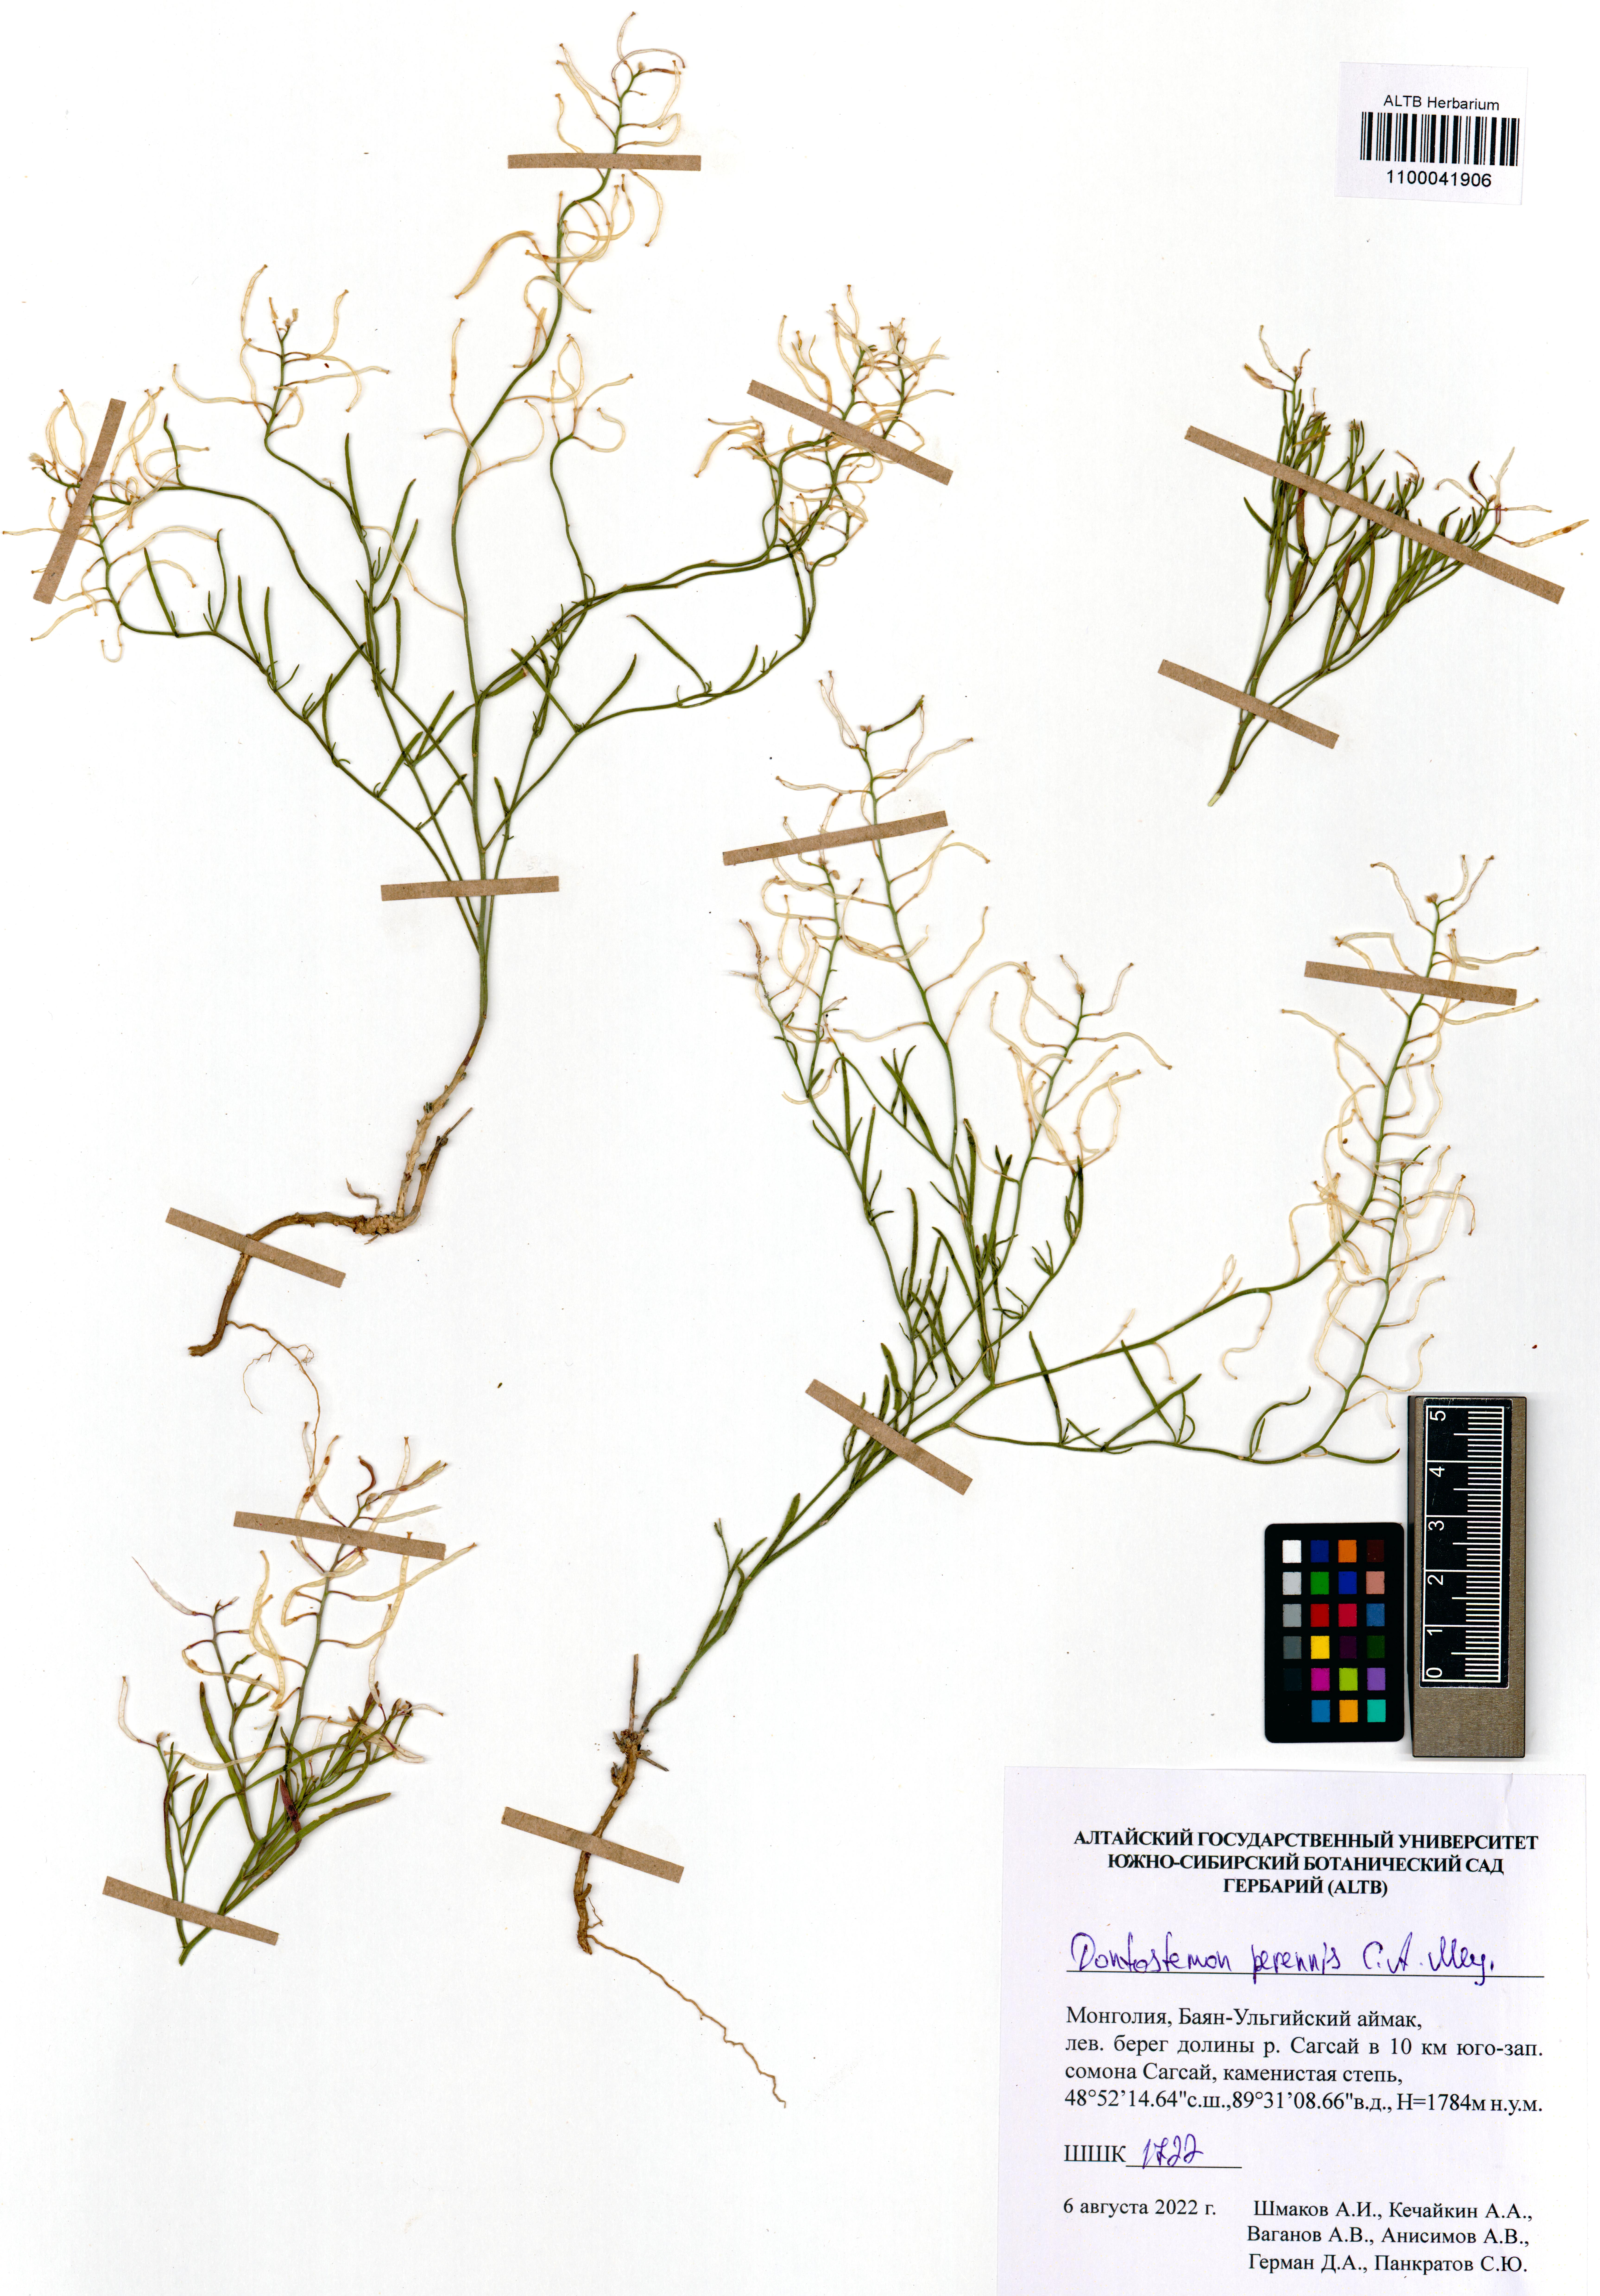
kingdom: Plantae
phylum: Tracheophyta
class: Magnoliopsida
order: Brassicales
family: Brassicaceae
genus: Dontostemon
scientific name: Dontostemon perennis
